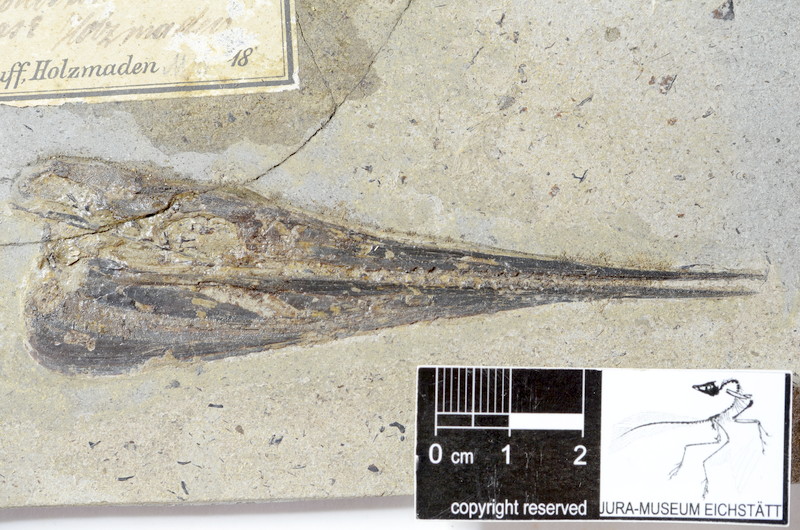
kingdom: Animalia
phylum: Chordata
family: Saurichthyidae
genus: Saurorhynchus
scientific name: Saurorhynchus acutus
